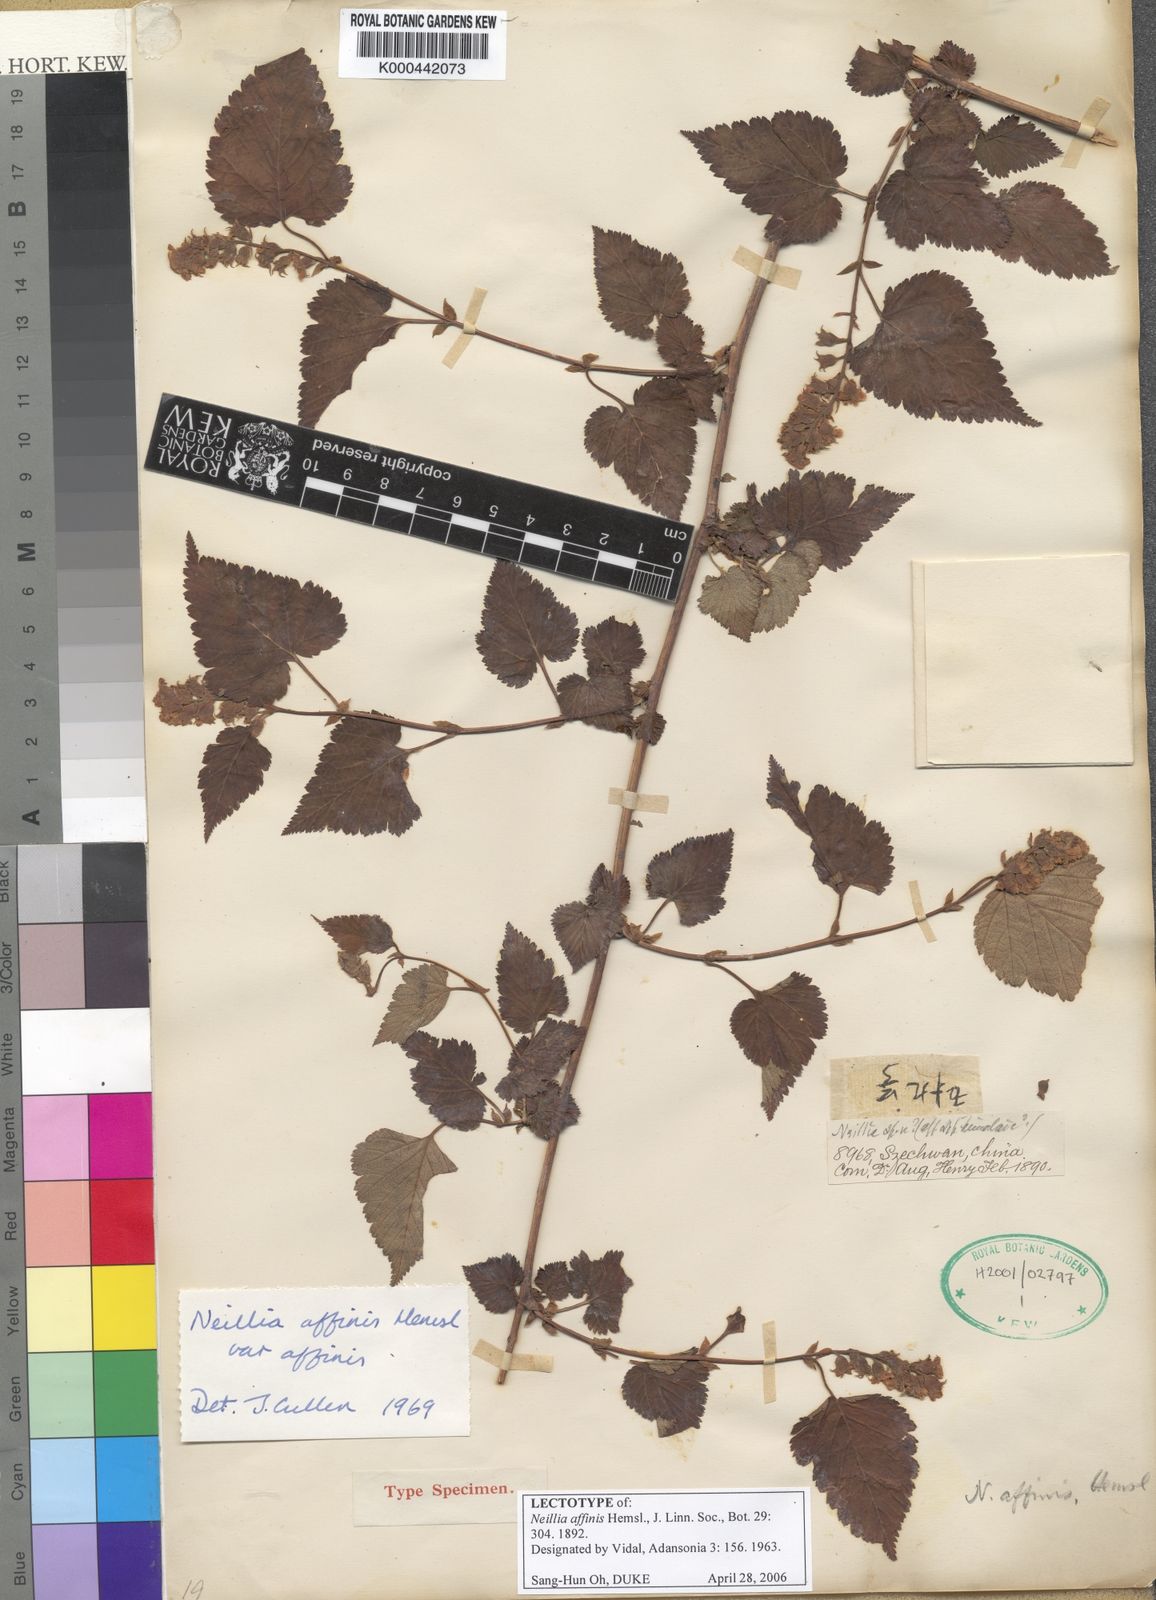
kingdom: Plantae
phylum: Tracheophyta
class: Magnoliopsida
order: Rosales
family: Rosaceae
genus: Neillia
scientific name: Neillia affinis
